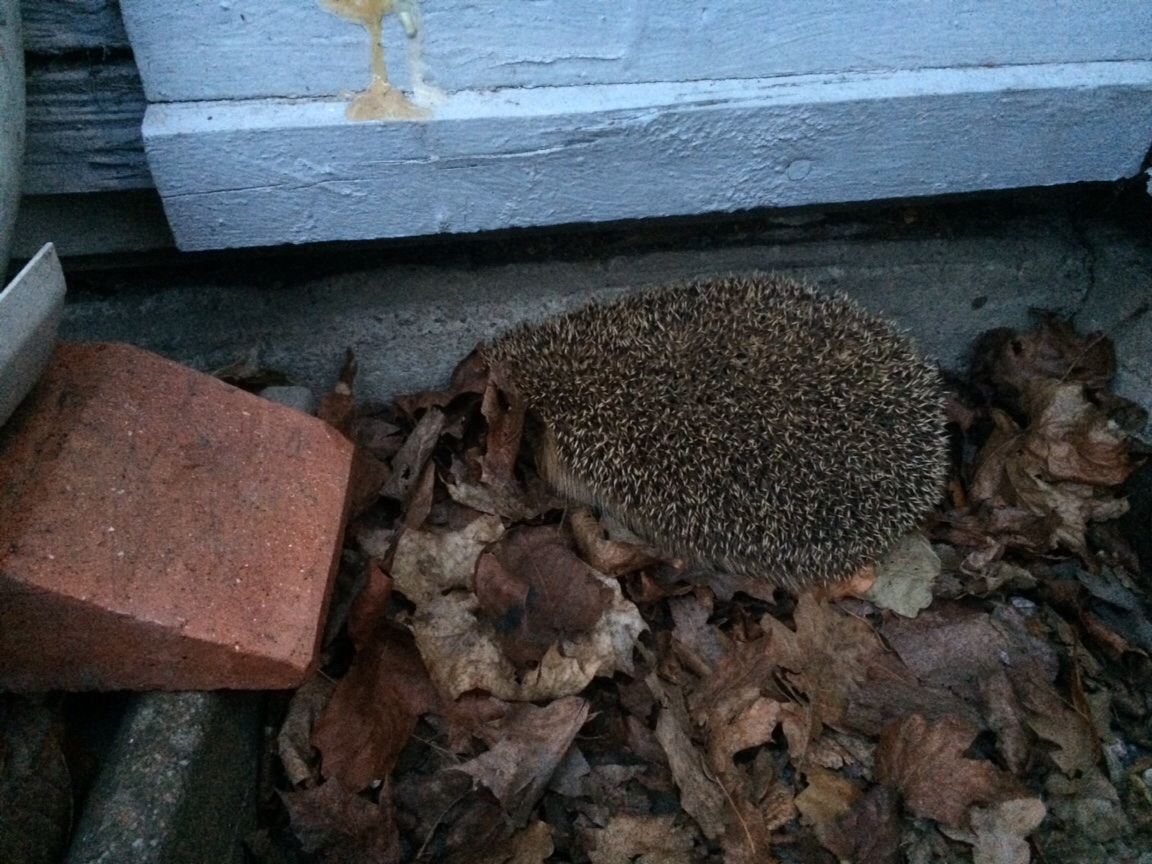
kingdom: Animalia
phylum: Chordata
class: Mammalia
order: Erinaceomorpha
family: Erinaceidae
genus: Erinaceus
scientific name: Erinaceus europaeus
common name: West european hedgehog
